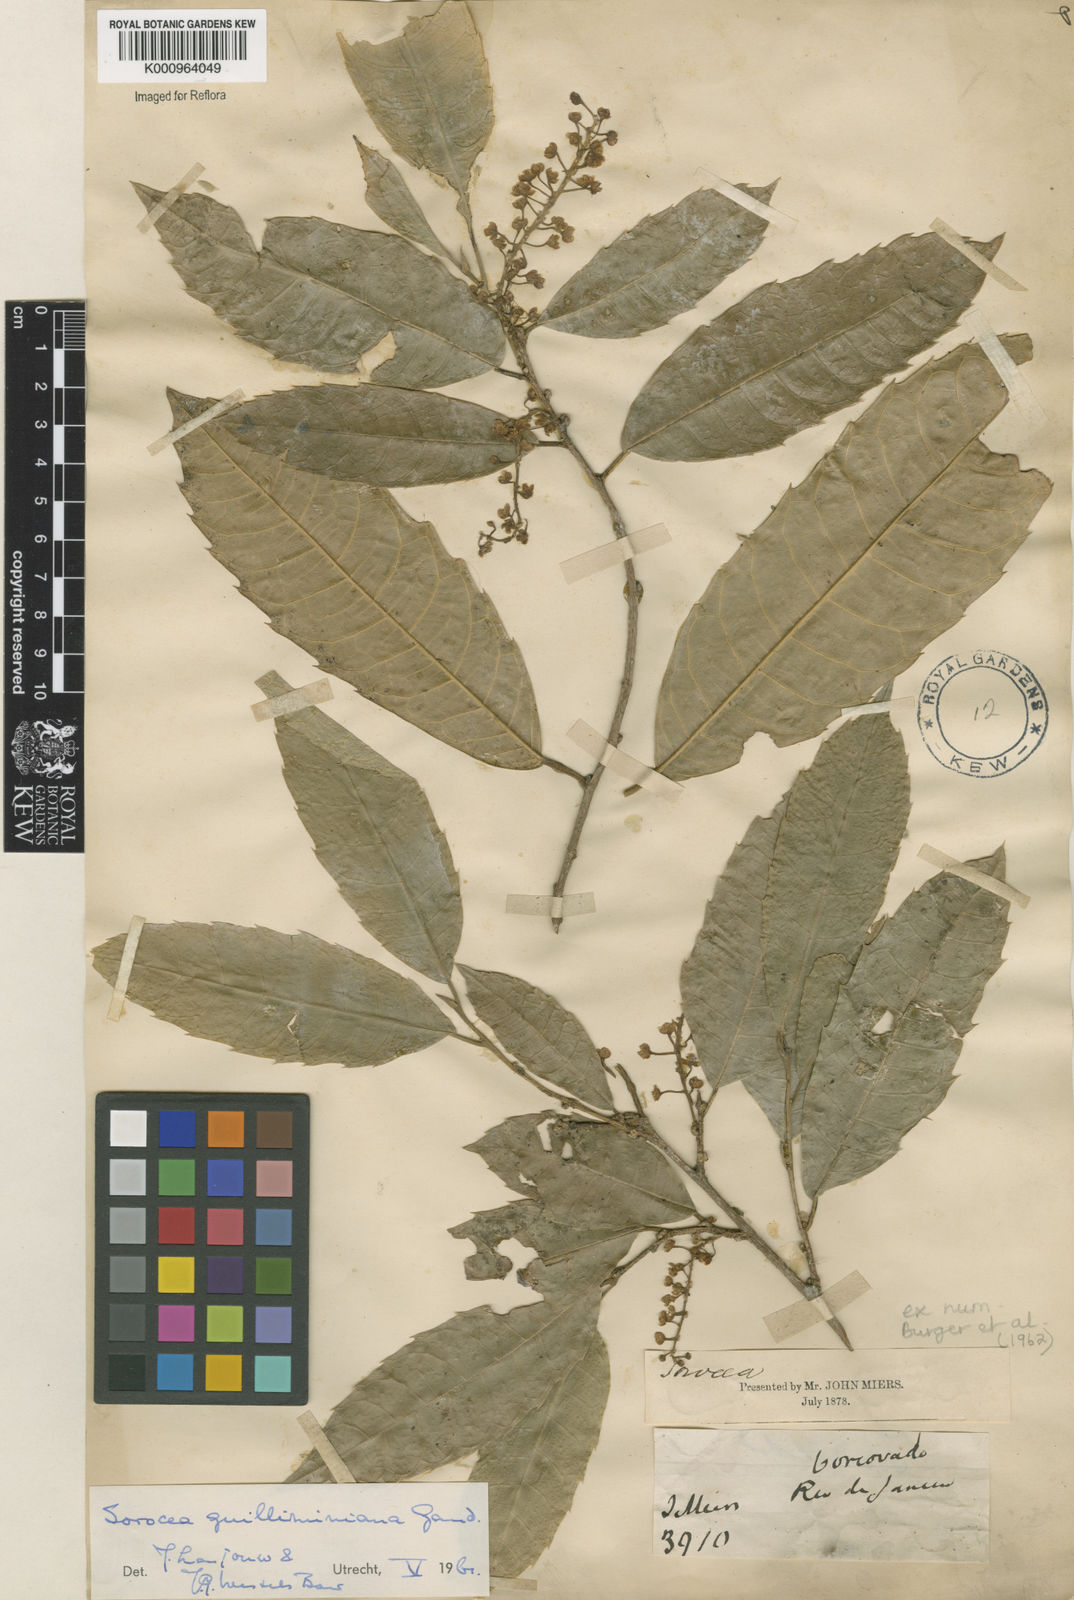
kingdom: Plantae
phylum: Tracheophyta
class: Magnoliopsida
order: Rosales
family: Moraceae
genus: Sorocea
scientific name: Sorocea guilleminiana
